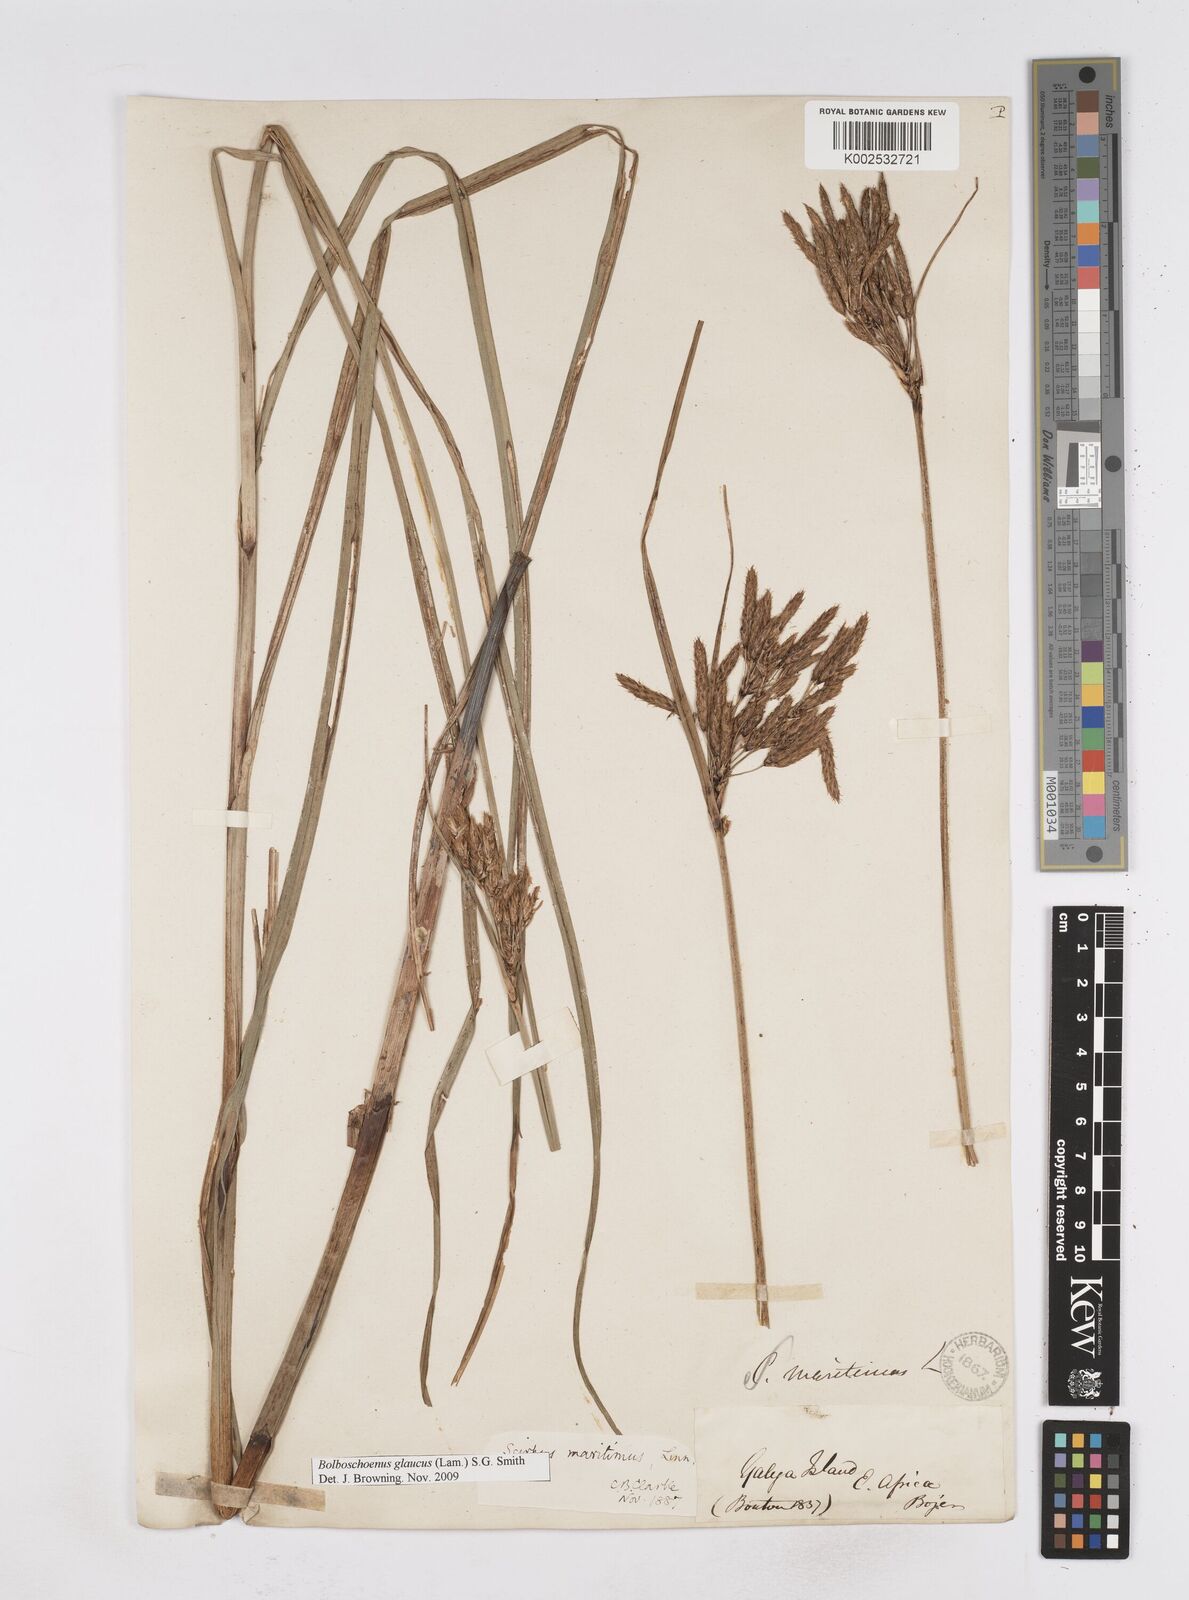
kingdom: Plantae
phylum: Tracheophyta
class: Liliopsida
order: Poales
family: Cyperaceae
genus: Bolboschoenus
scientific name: Bolboschoenus maritimus
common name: Sea club-rush
